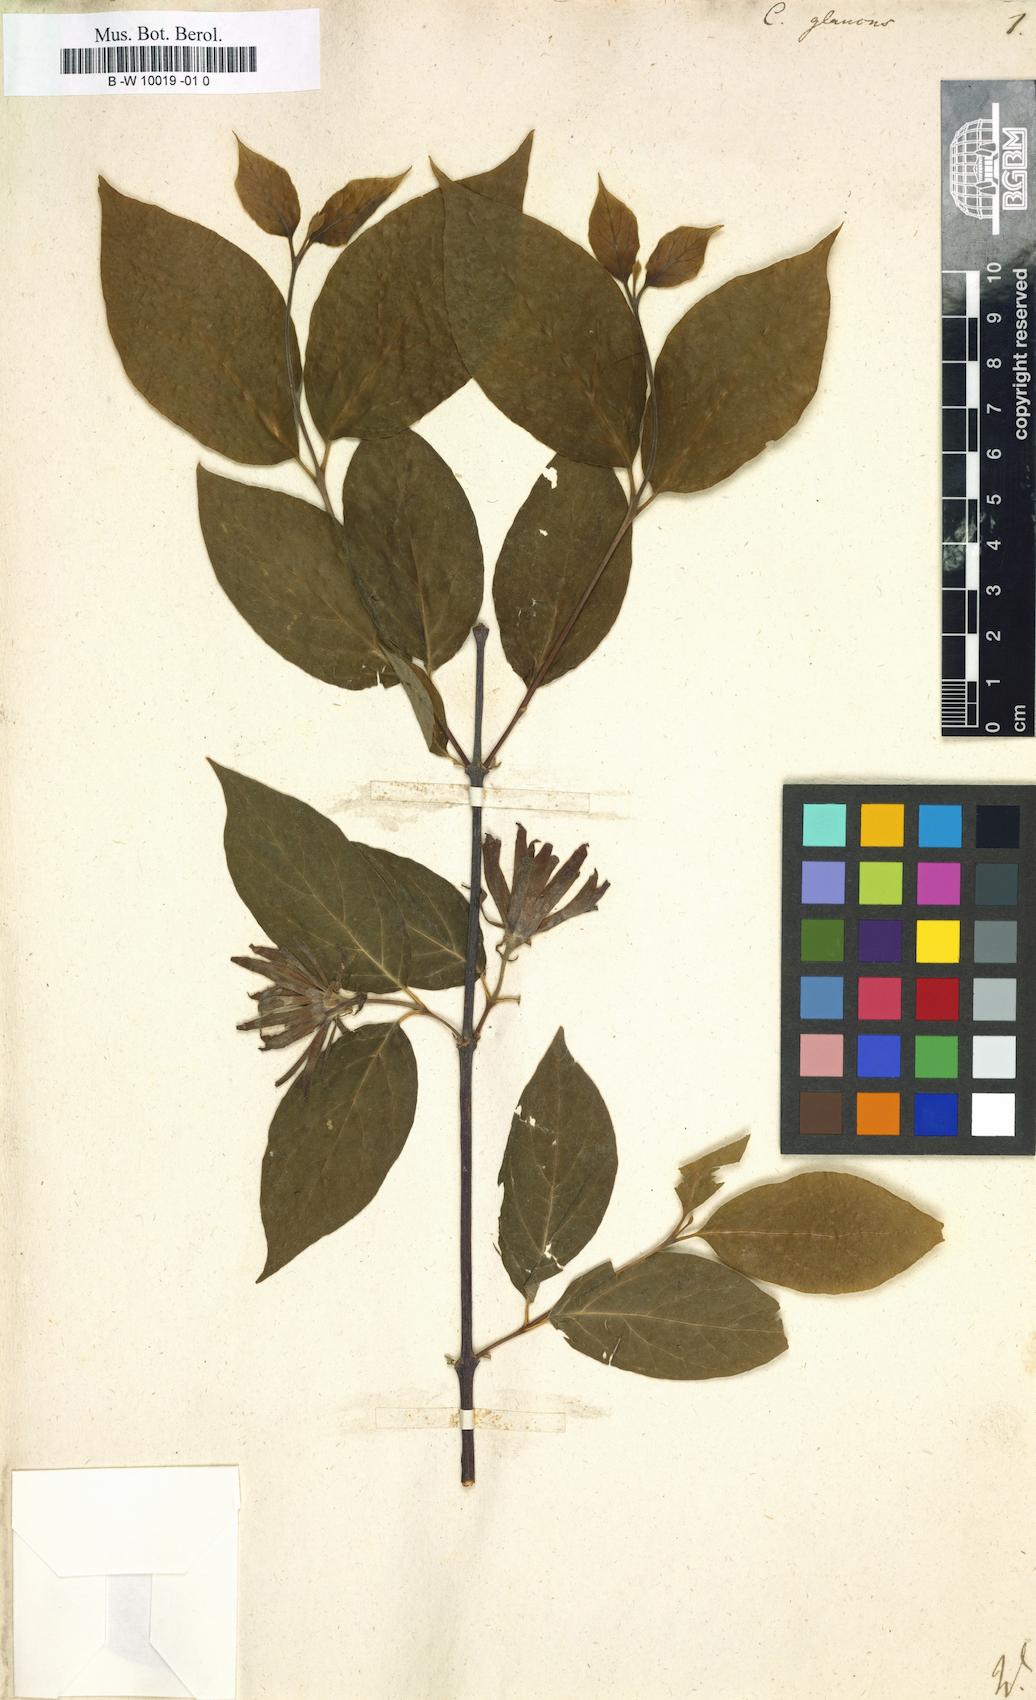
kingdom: Plantae
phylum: Tracheophyta
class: Magnoliopsida
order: Laurales
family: Calycanthaceae
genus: Calycanthus
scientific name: Calycanthus floridus
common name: Carolina-allspice
